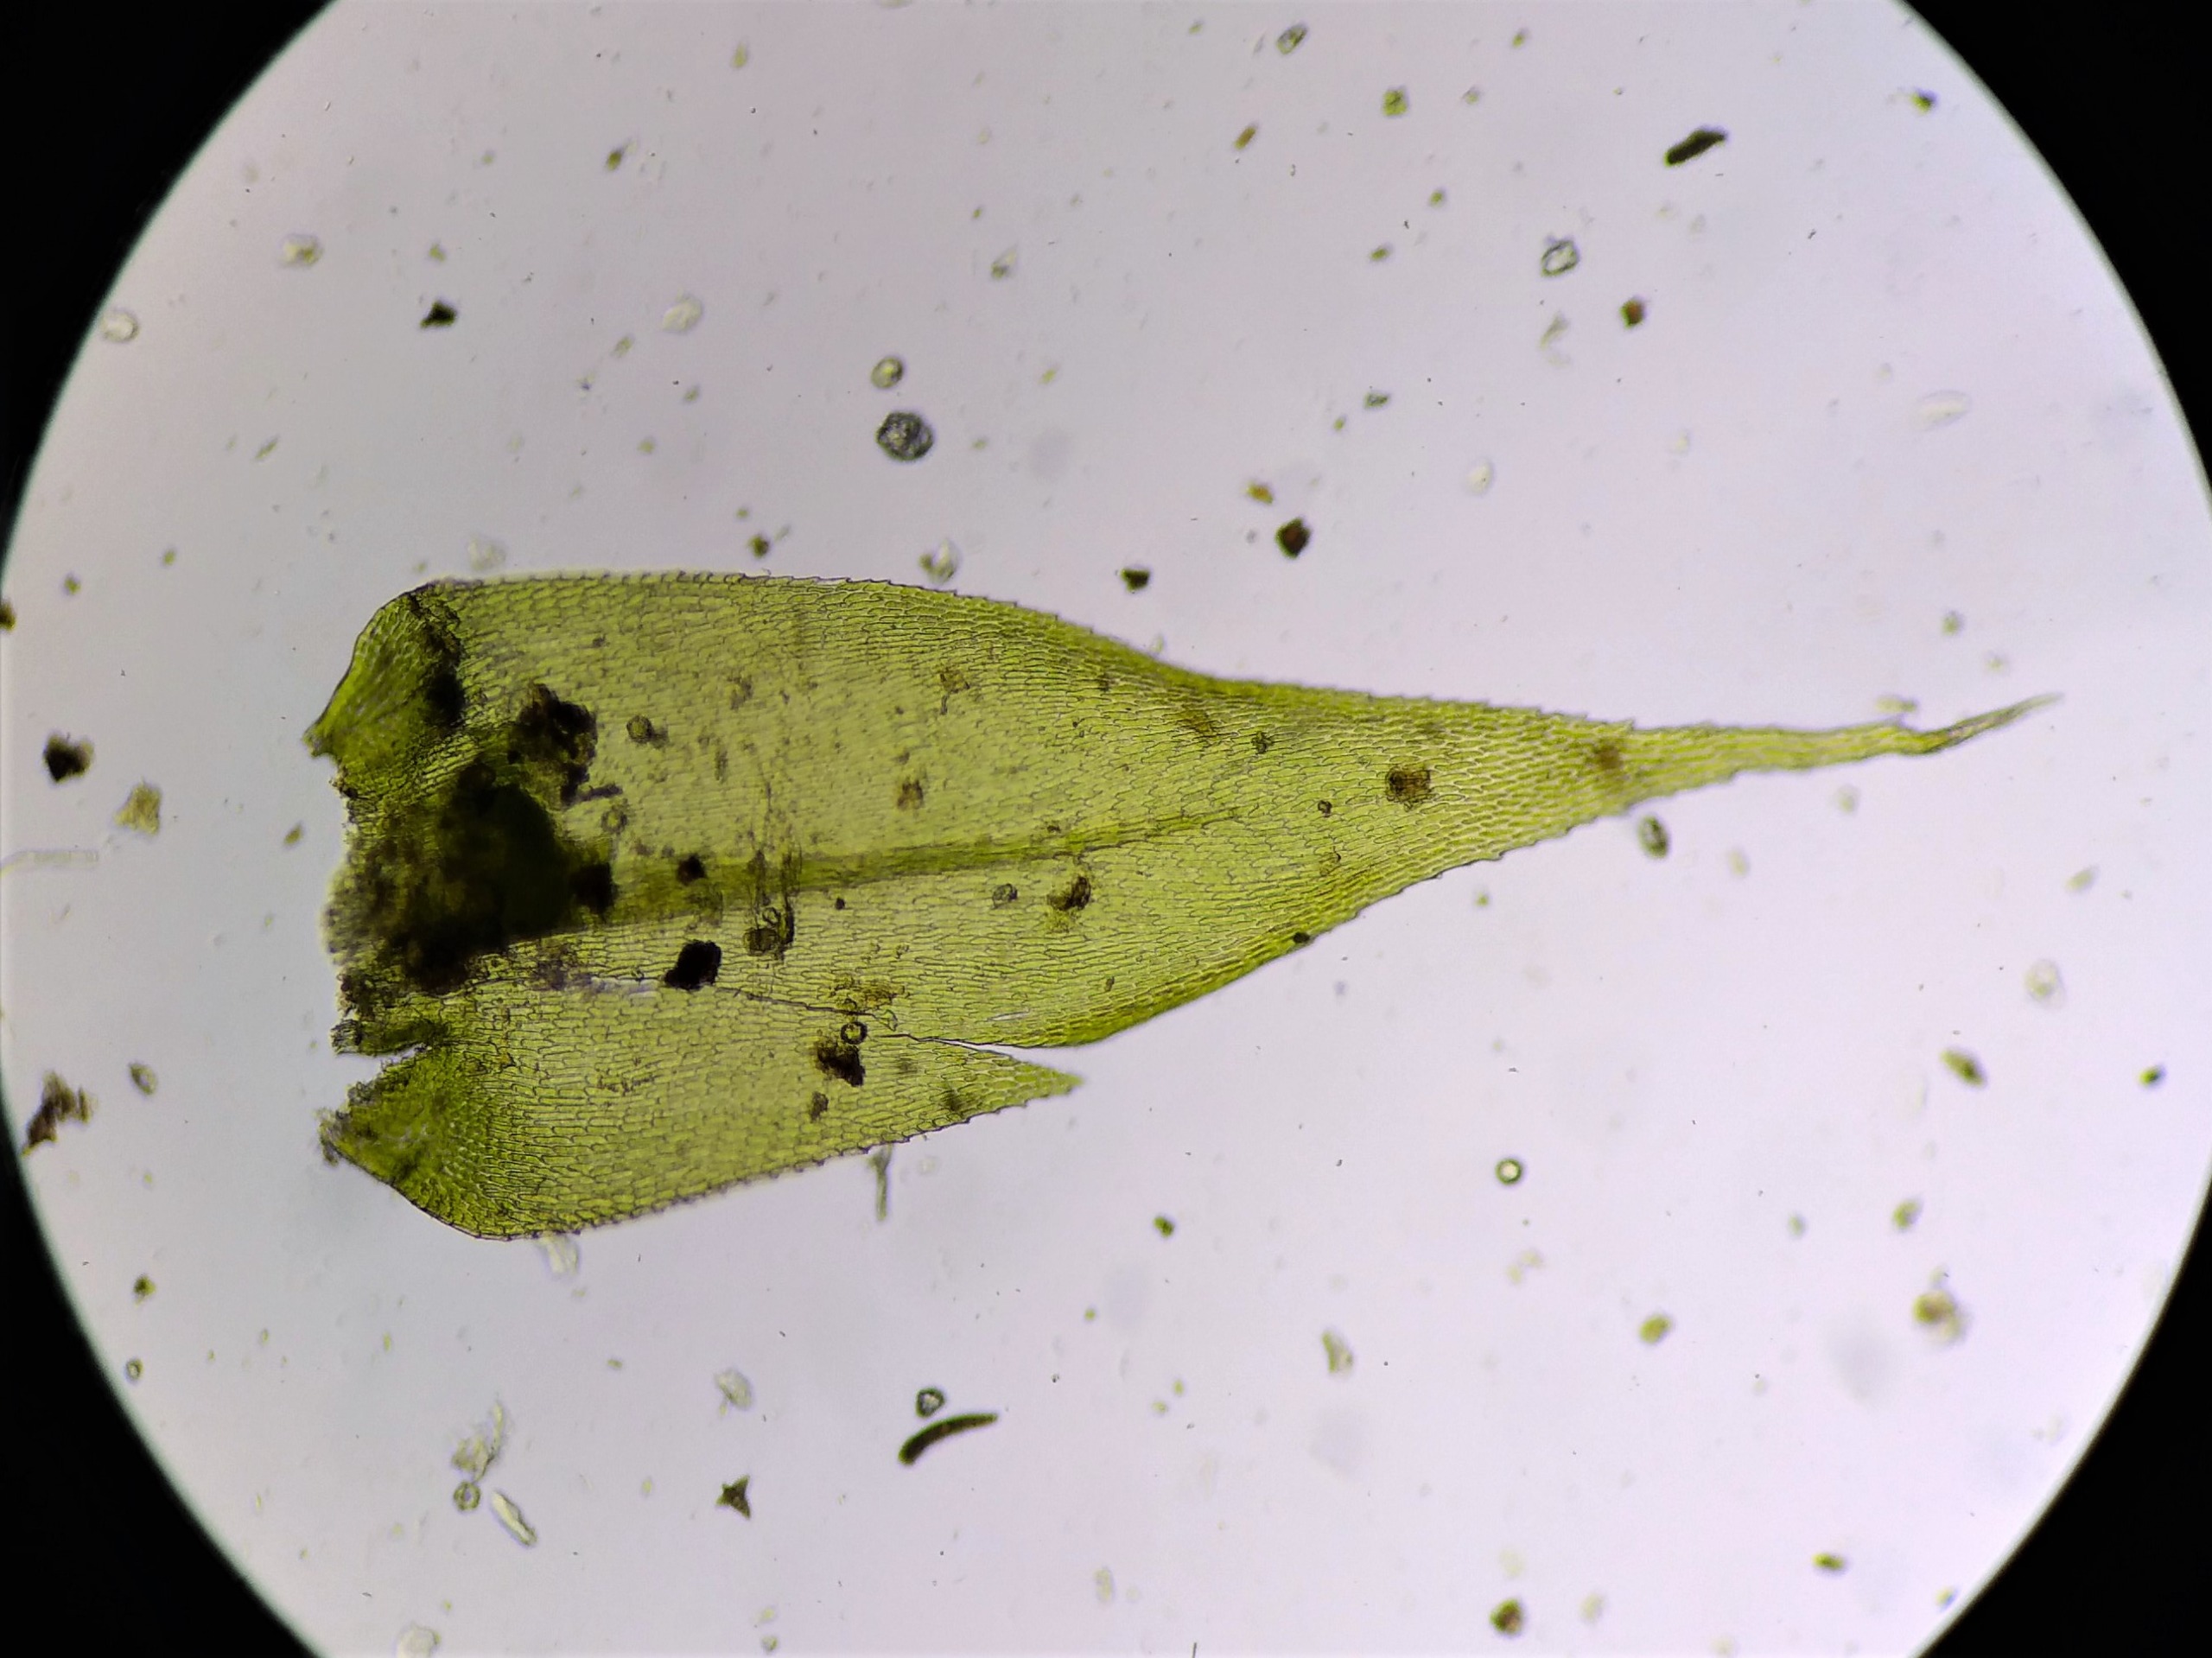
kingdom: Plantae
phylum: Bryophyta
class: Bryopsida
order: Hypnales
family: Lembophyllaceae
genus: Pseudisothecium
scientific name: Pseudisothecium myosuroides
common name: Slank stammemos
